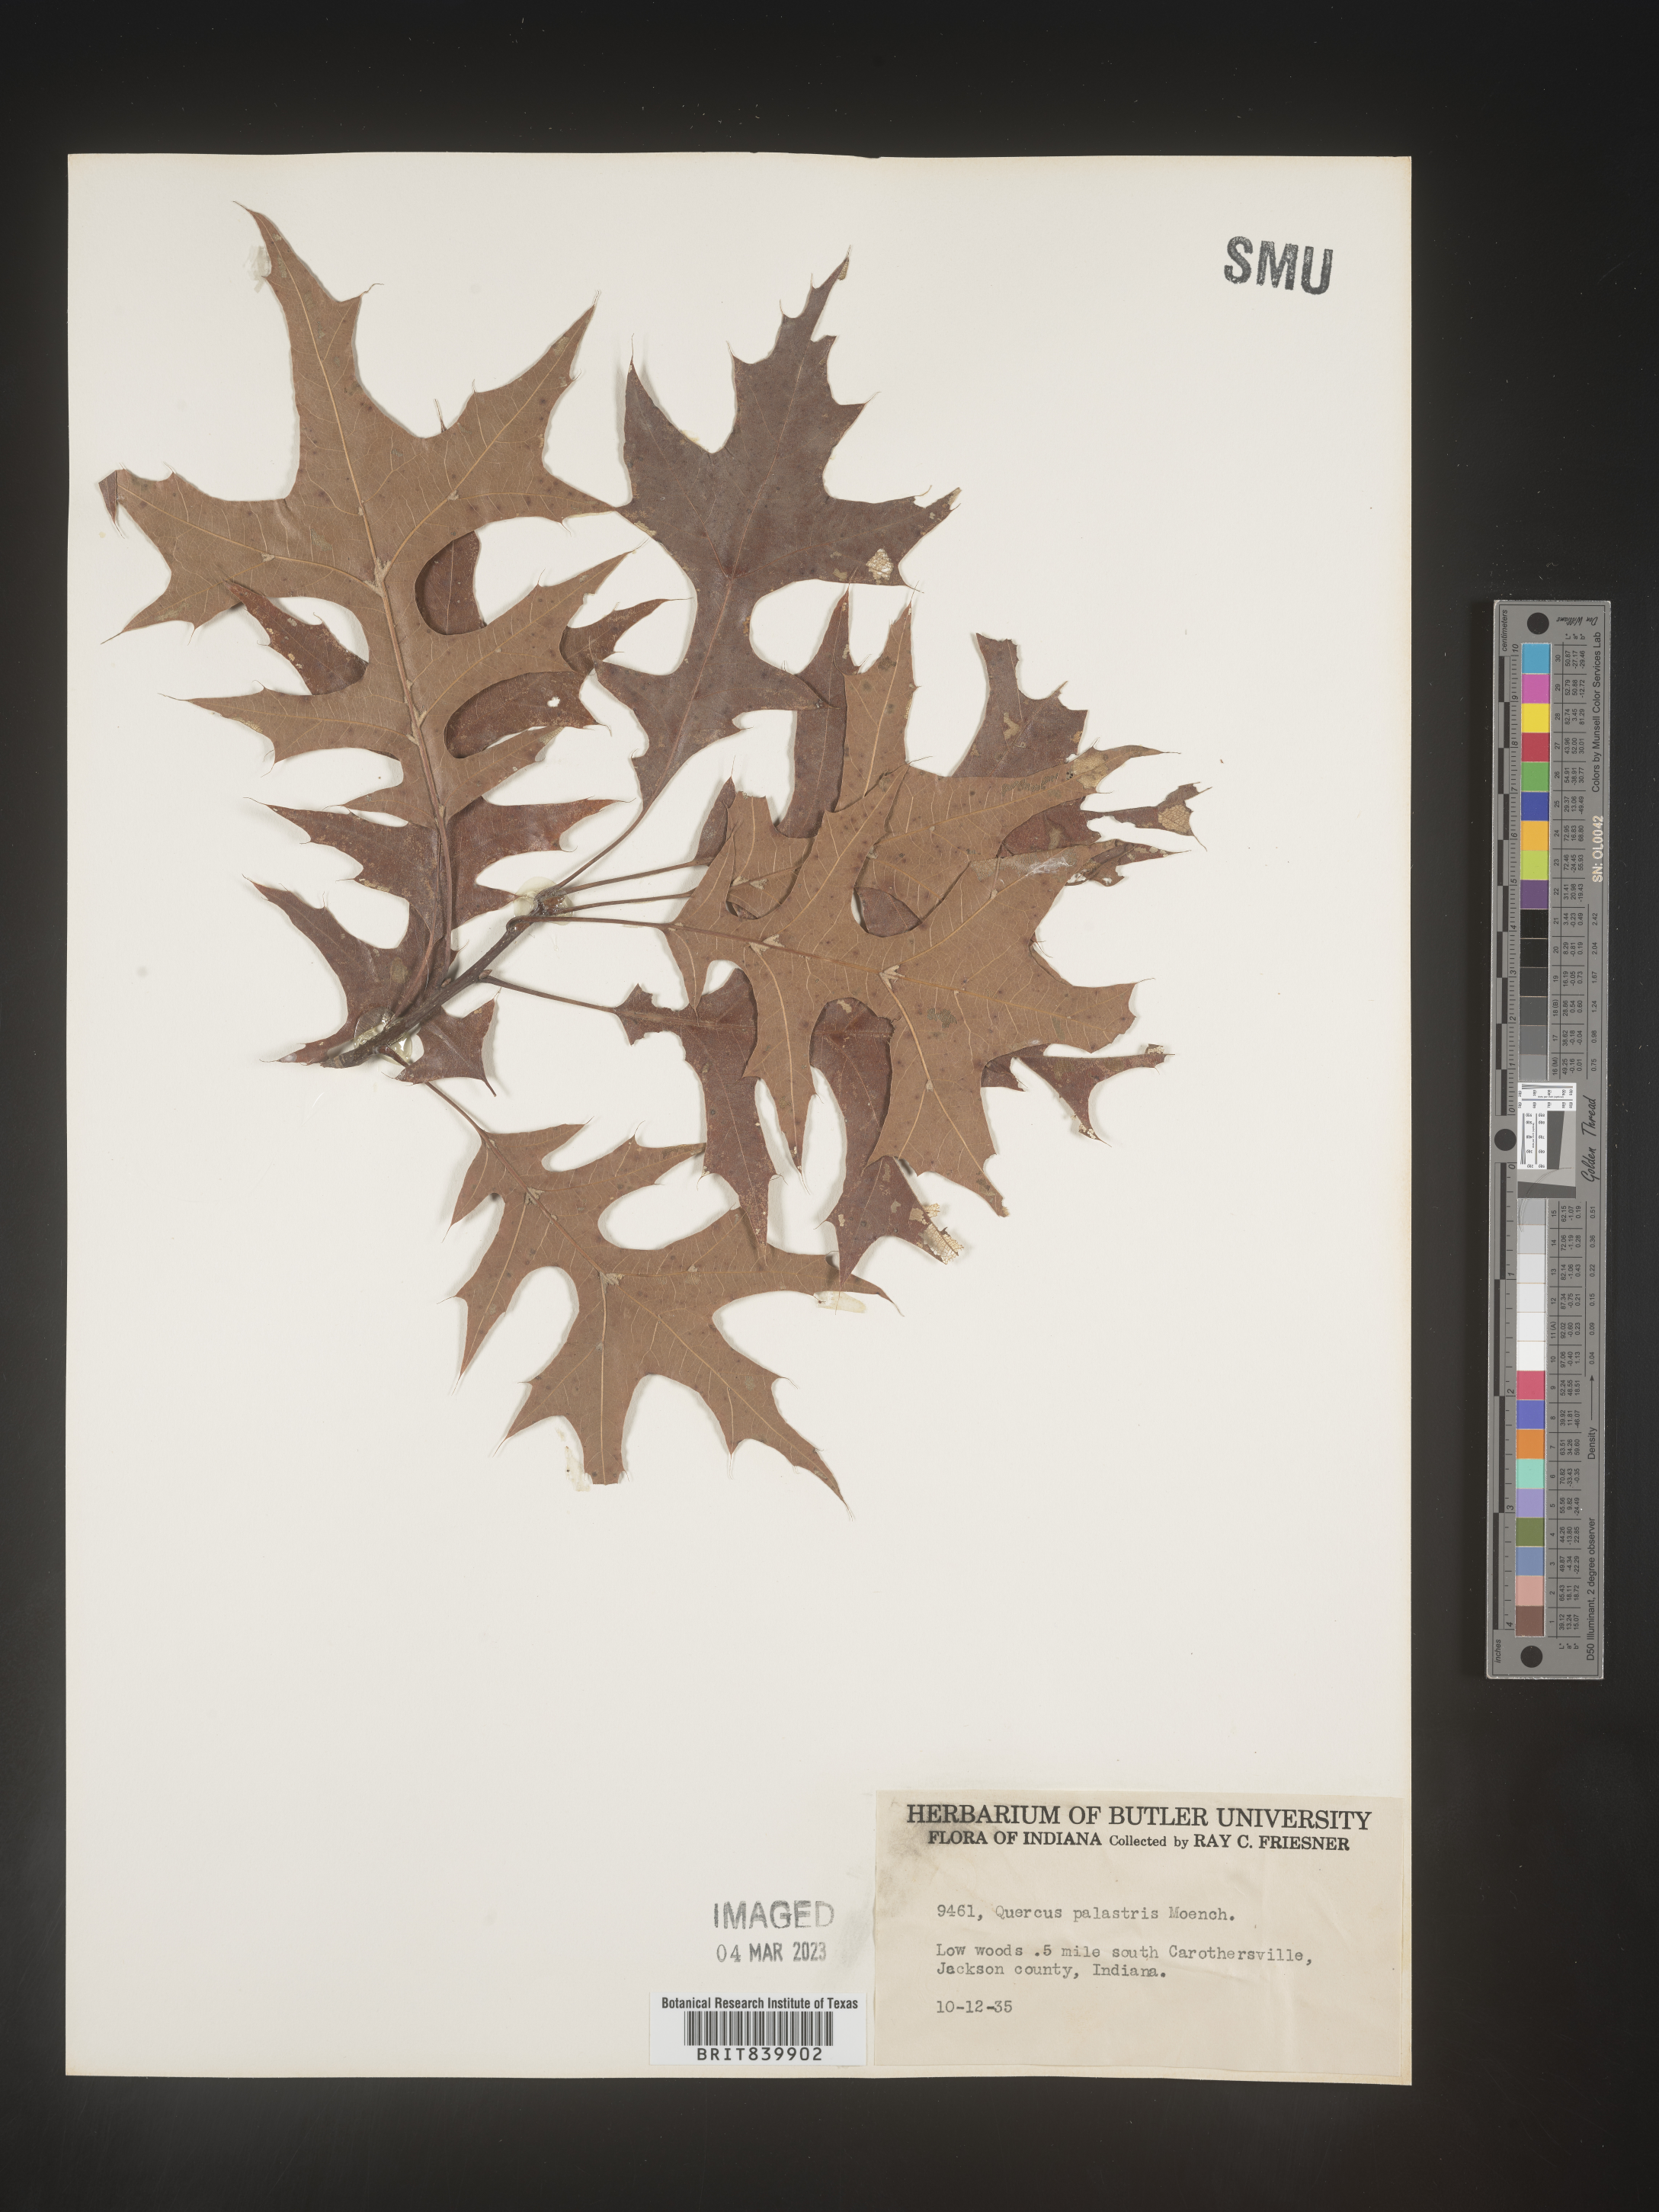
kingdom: Plantae
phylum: Tracheophyta
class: Magnoliopsida
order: Fagales
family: Fagaceae
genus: Quercus
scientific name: Quercus palustris
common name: Pin oak
